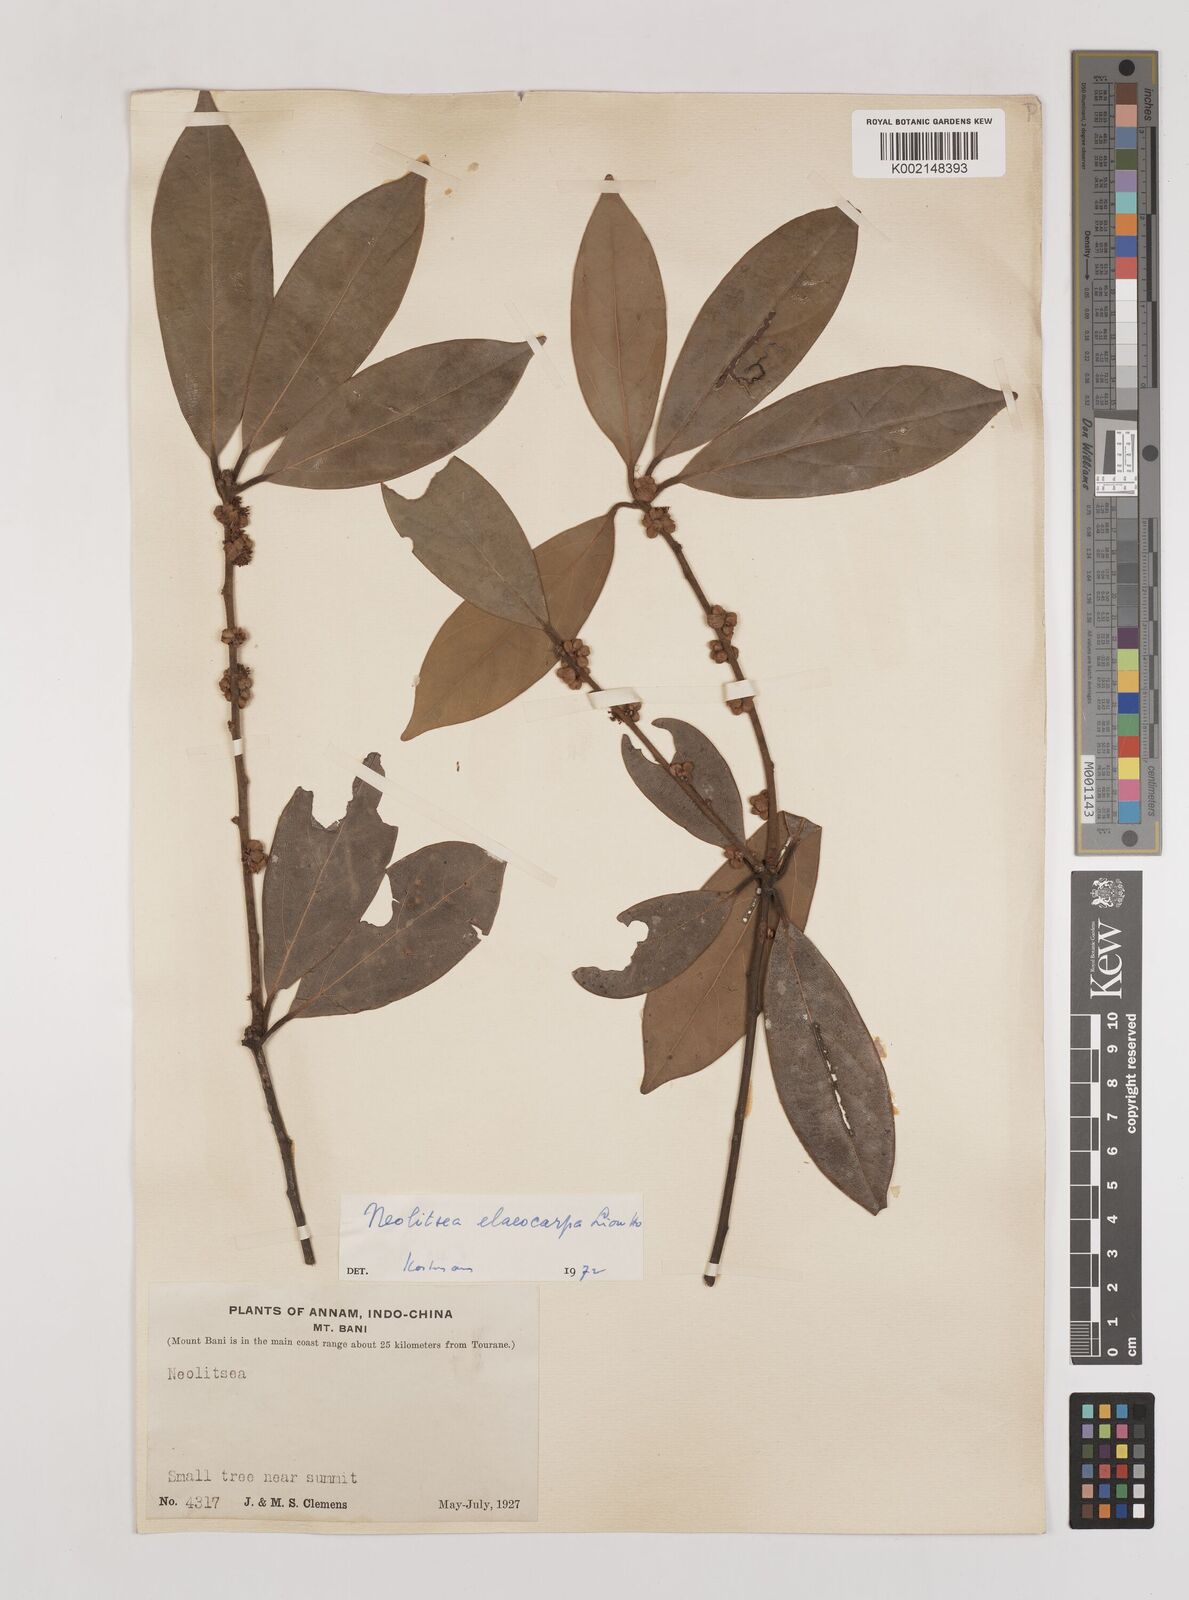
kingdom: Plantae
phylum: Tracheophyta
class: Magnoliopsida
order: Laurales
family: Lauraceae
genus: Neolitsea
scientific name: Neolitsea elaeocarpa
